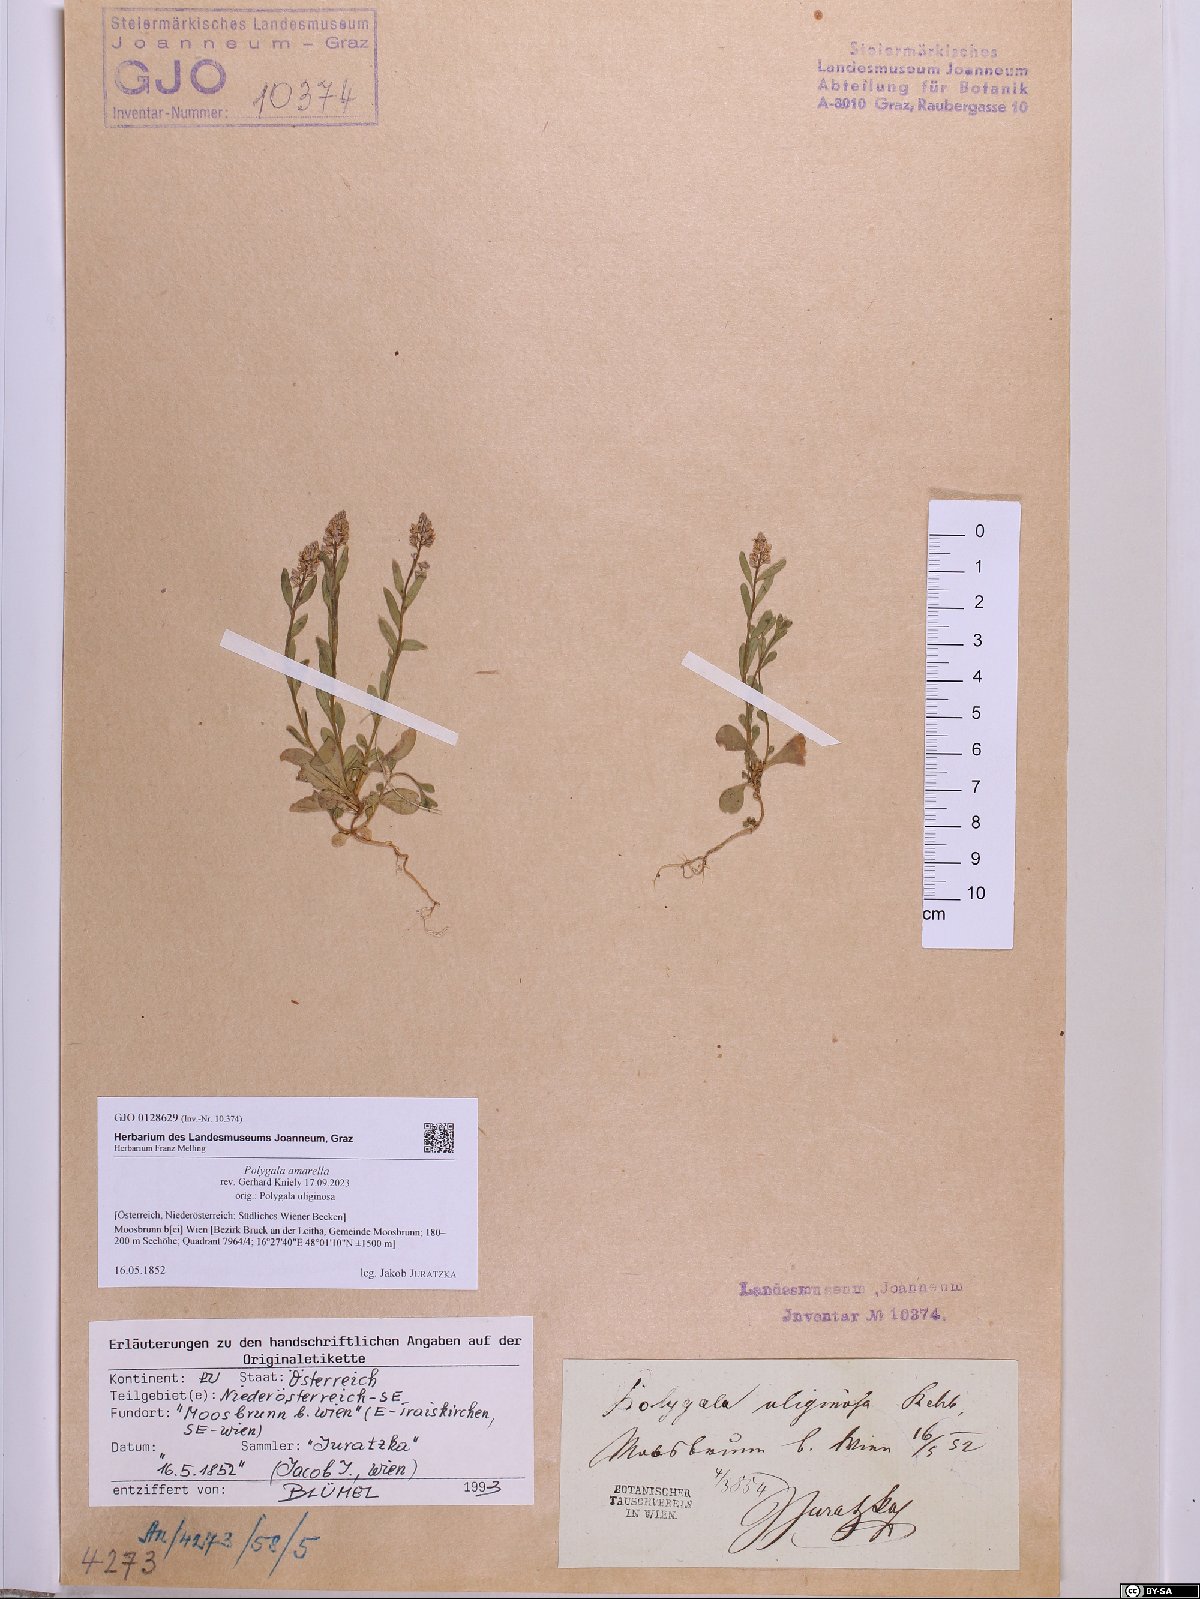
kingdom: Plantae
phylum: Tracheophyta
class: Magnoliopsida
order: Fabales
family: Polygalaceae
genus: Polygala
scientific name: Polygala amarella
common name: Dwarf milkwort
